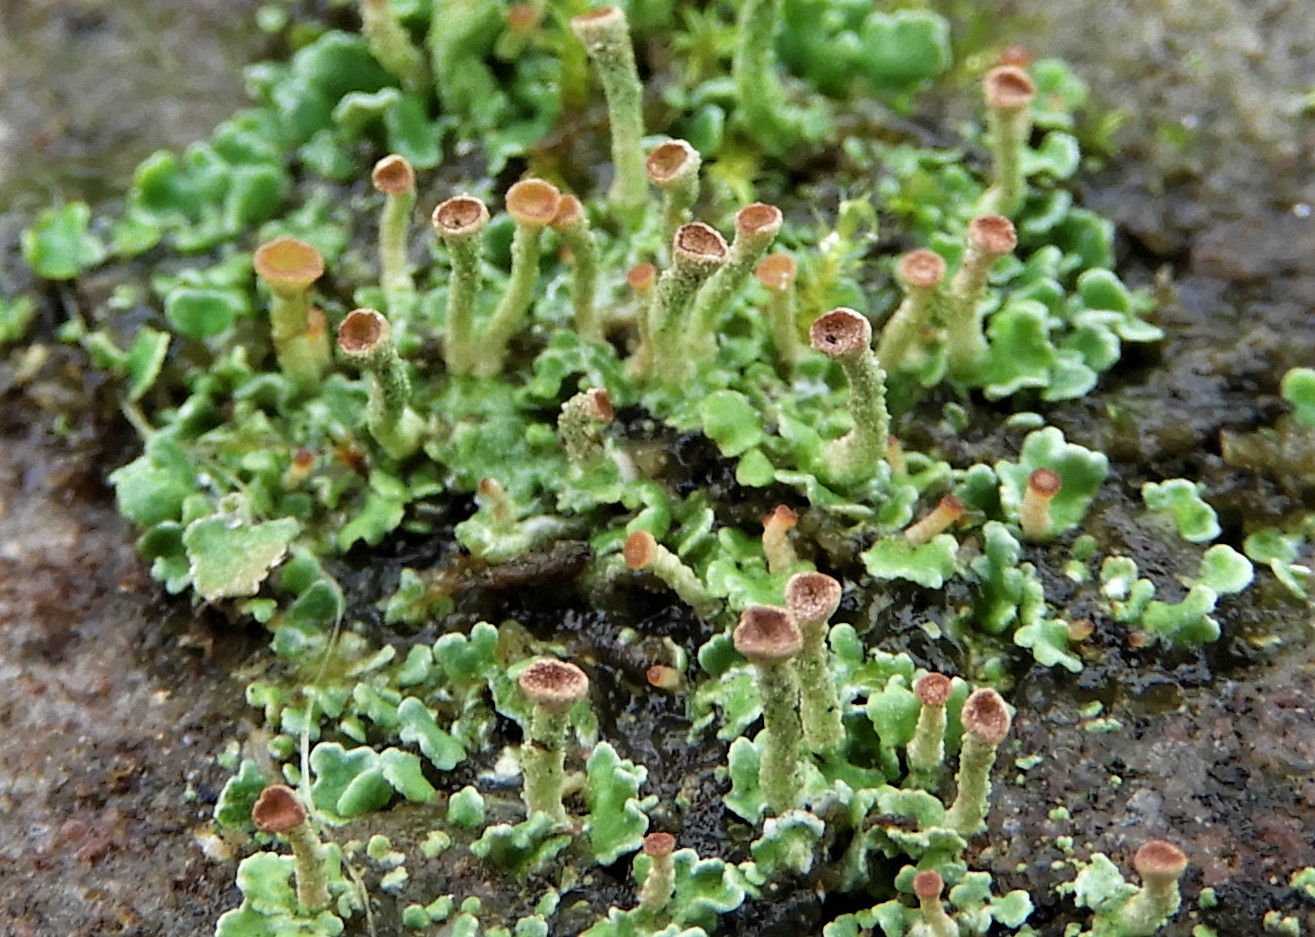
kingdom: Fungi
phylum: Ascomycota
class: Lecanoromycetes
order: Lecanorales
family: Cladoniaceae
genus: Cladonia
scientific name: Cladonia
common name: brungrøn bægerlav
